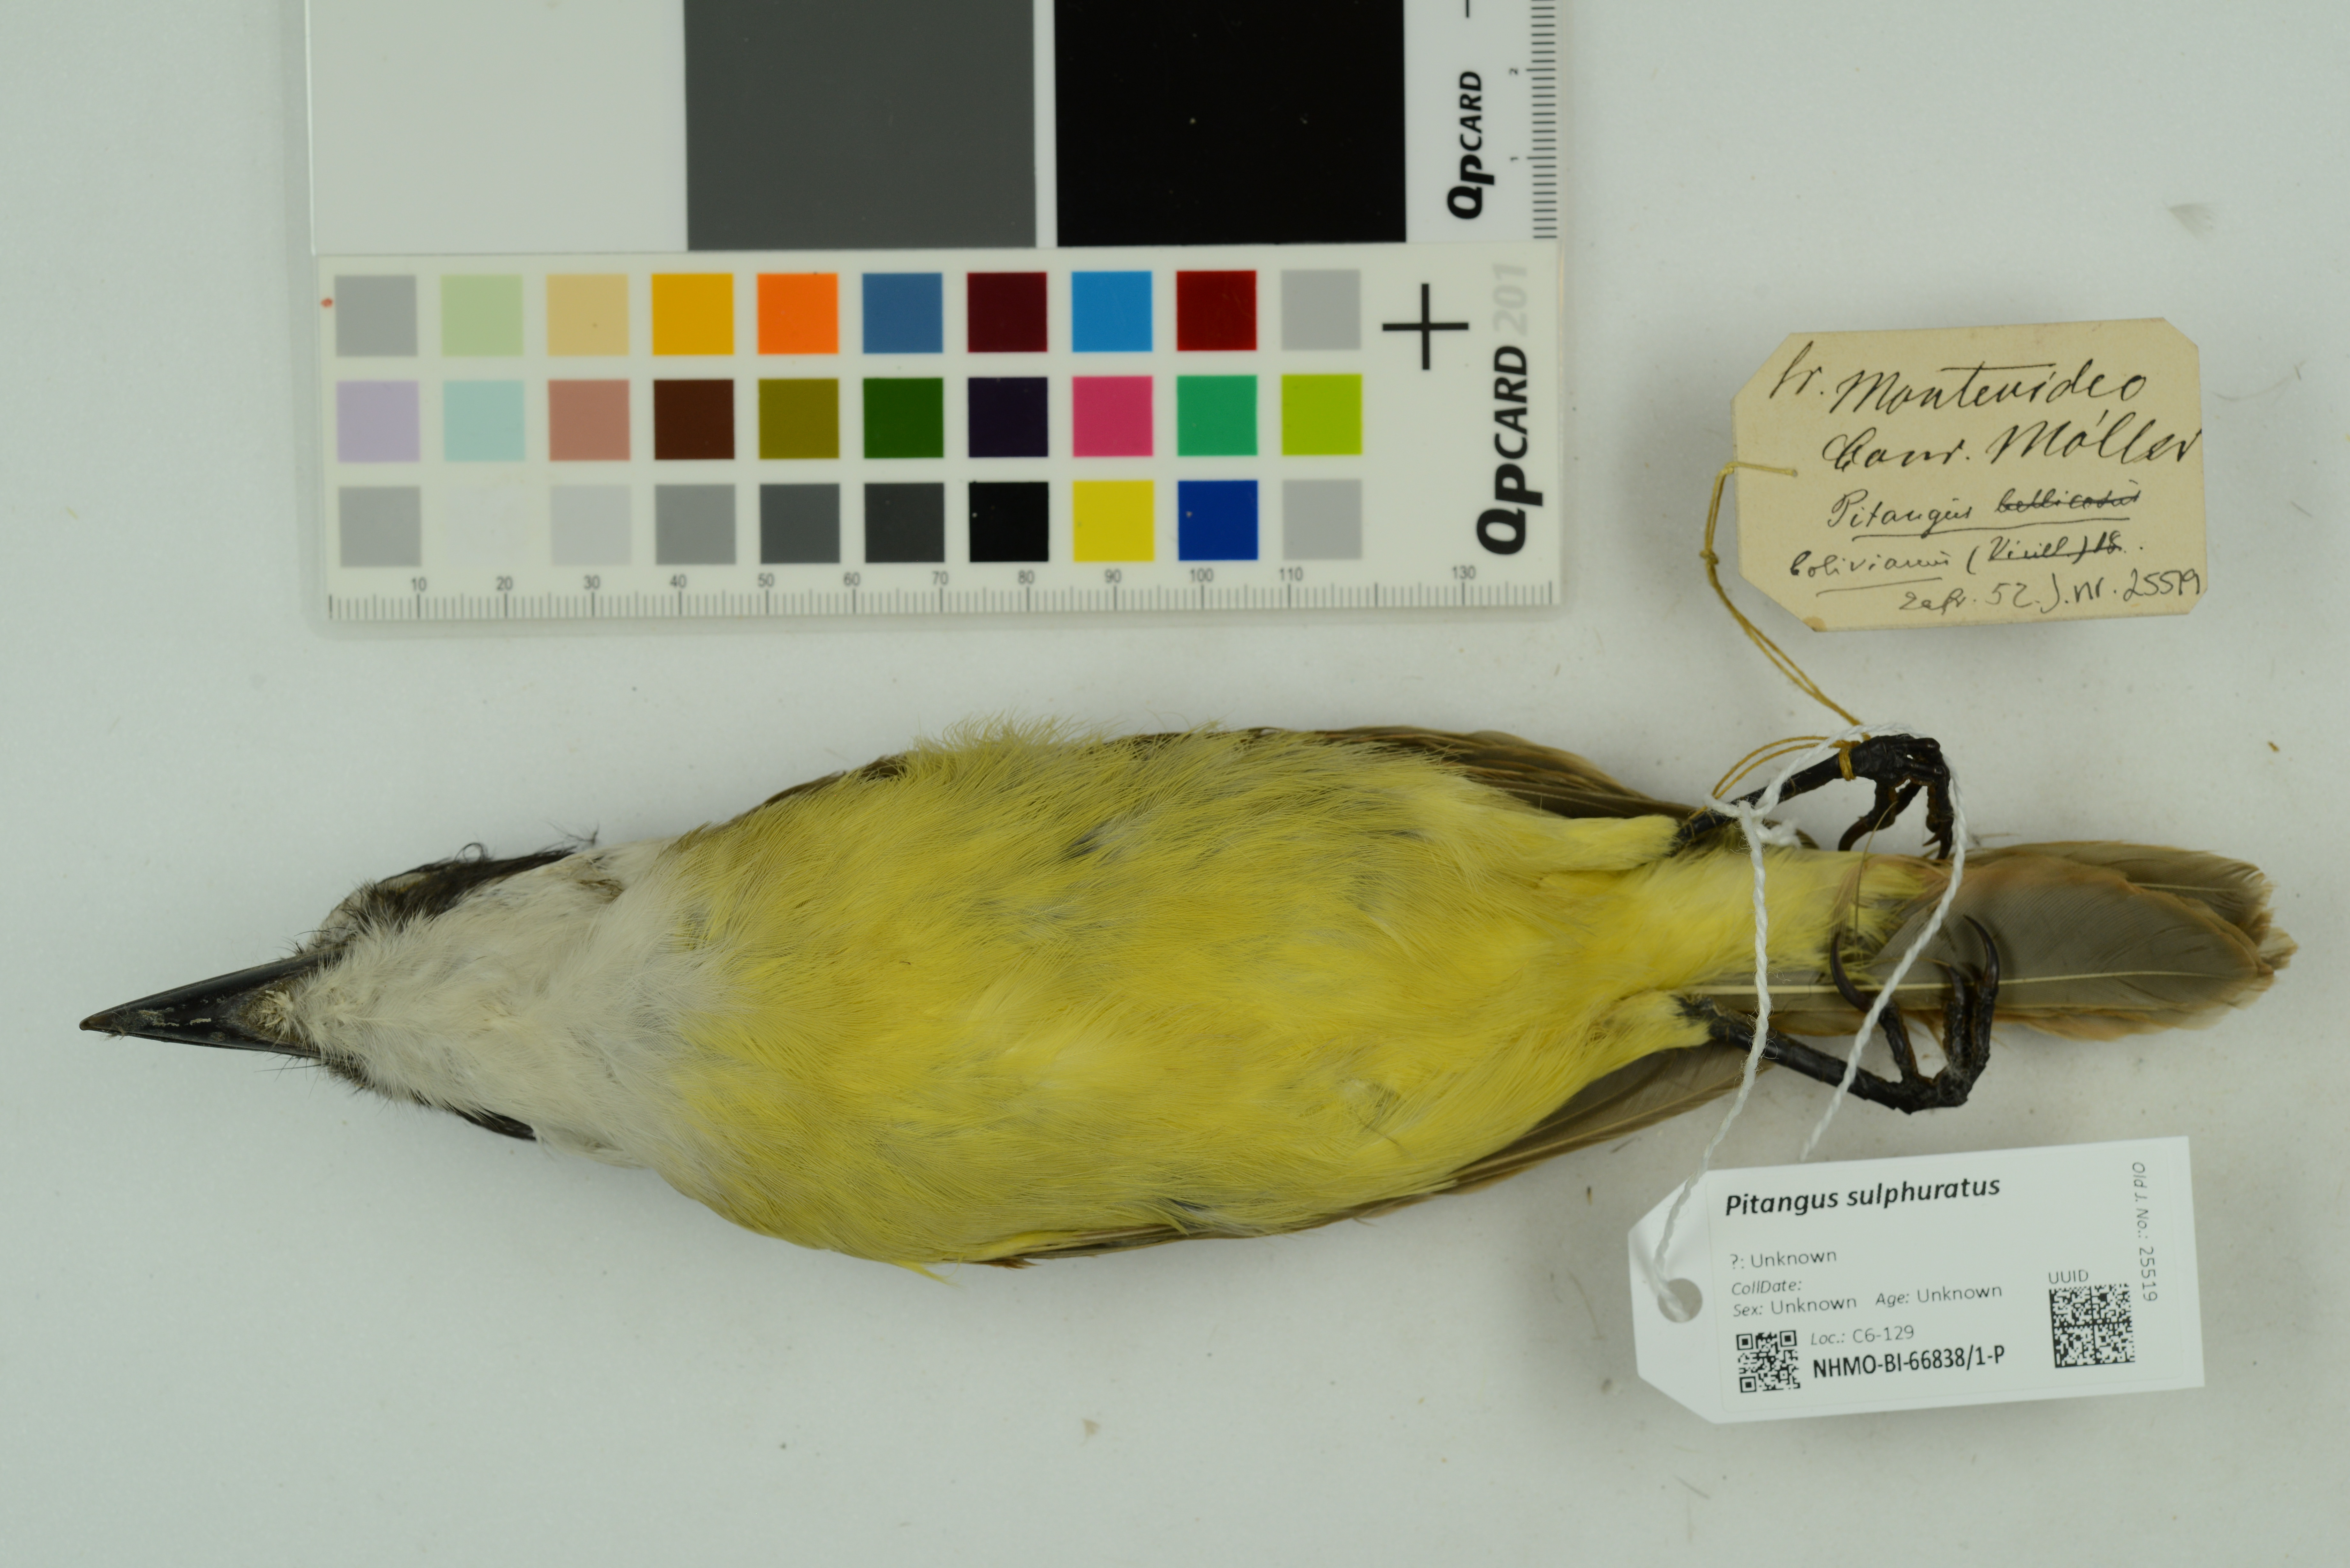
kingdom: Animalia
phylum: Chordata
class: Aves
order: Passeriformes
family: Tyrannidae
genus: Pitangus
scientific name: Pitangus sulphuratus
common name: Great kiskadee
